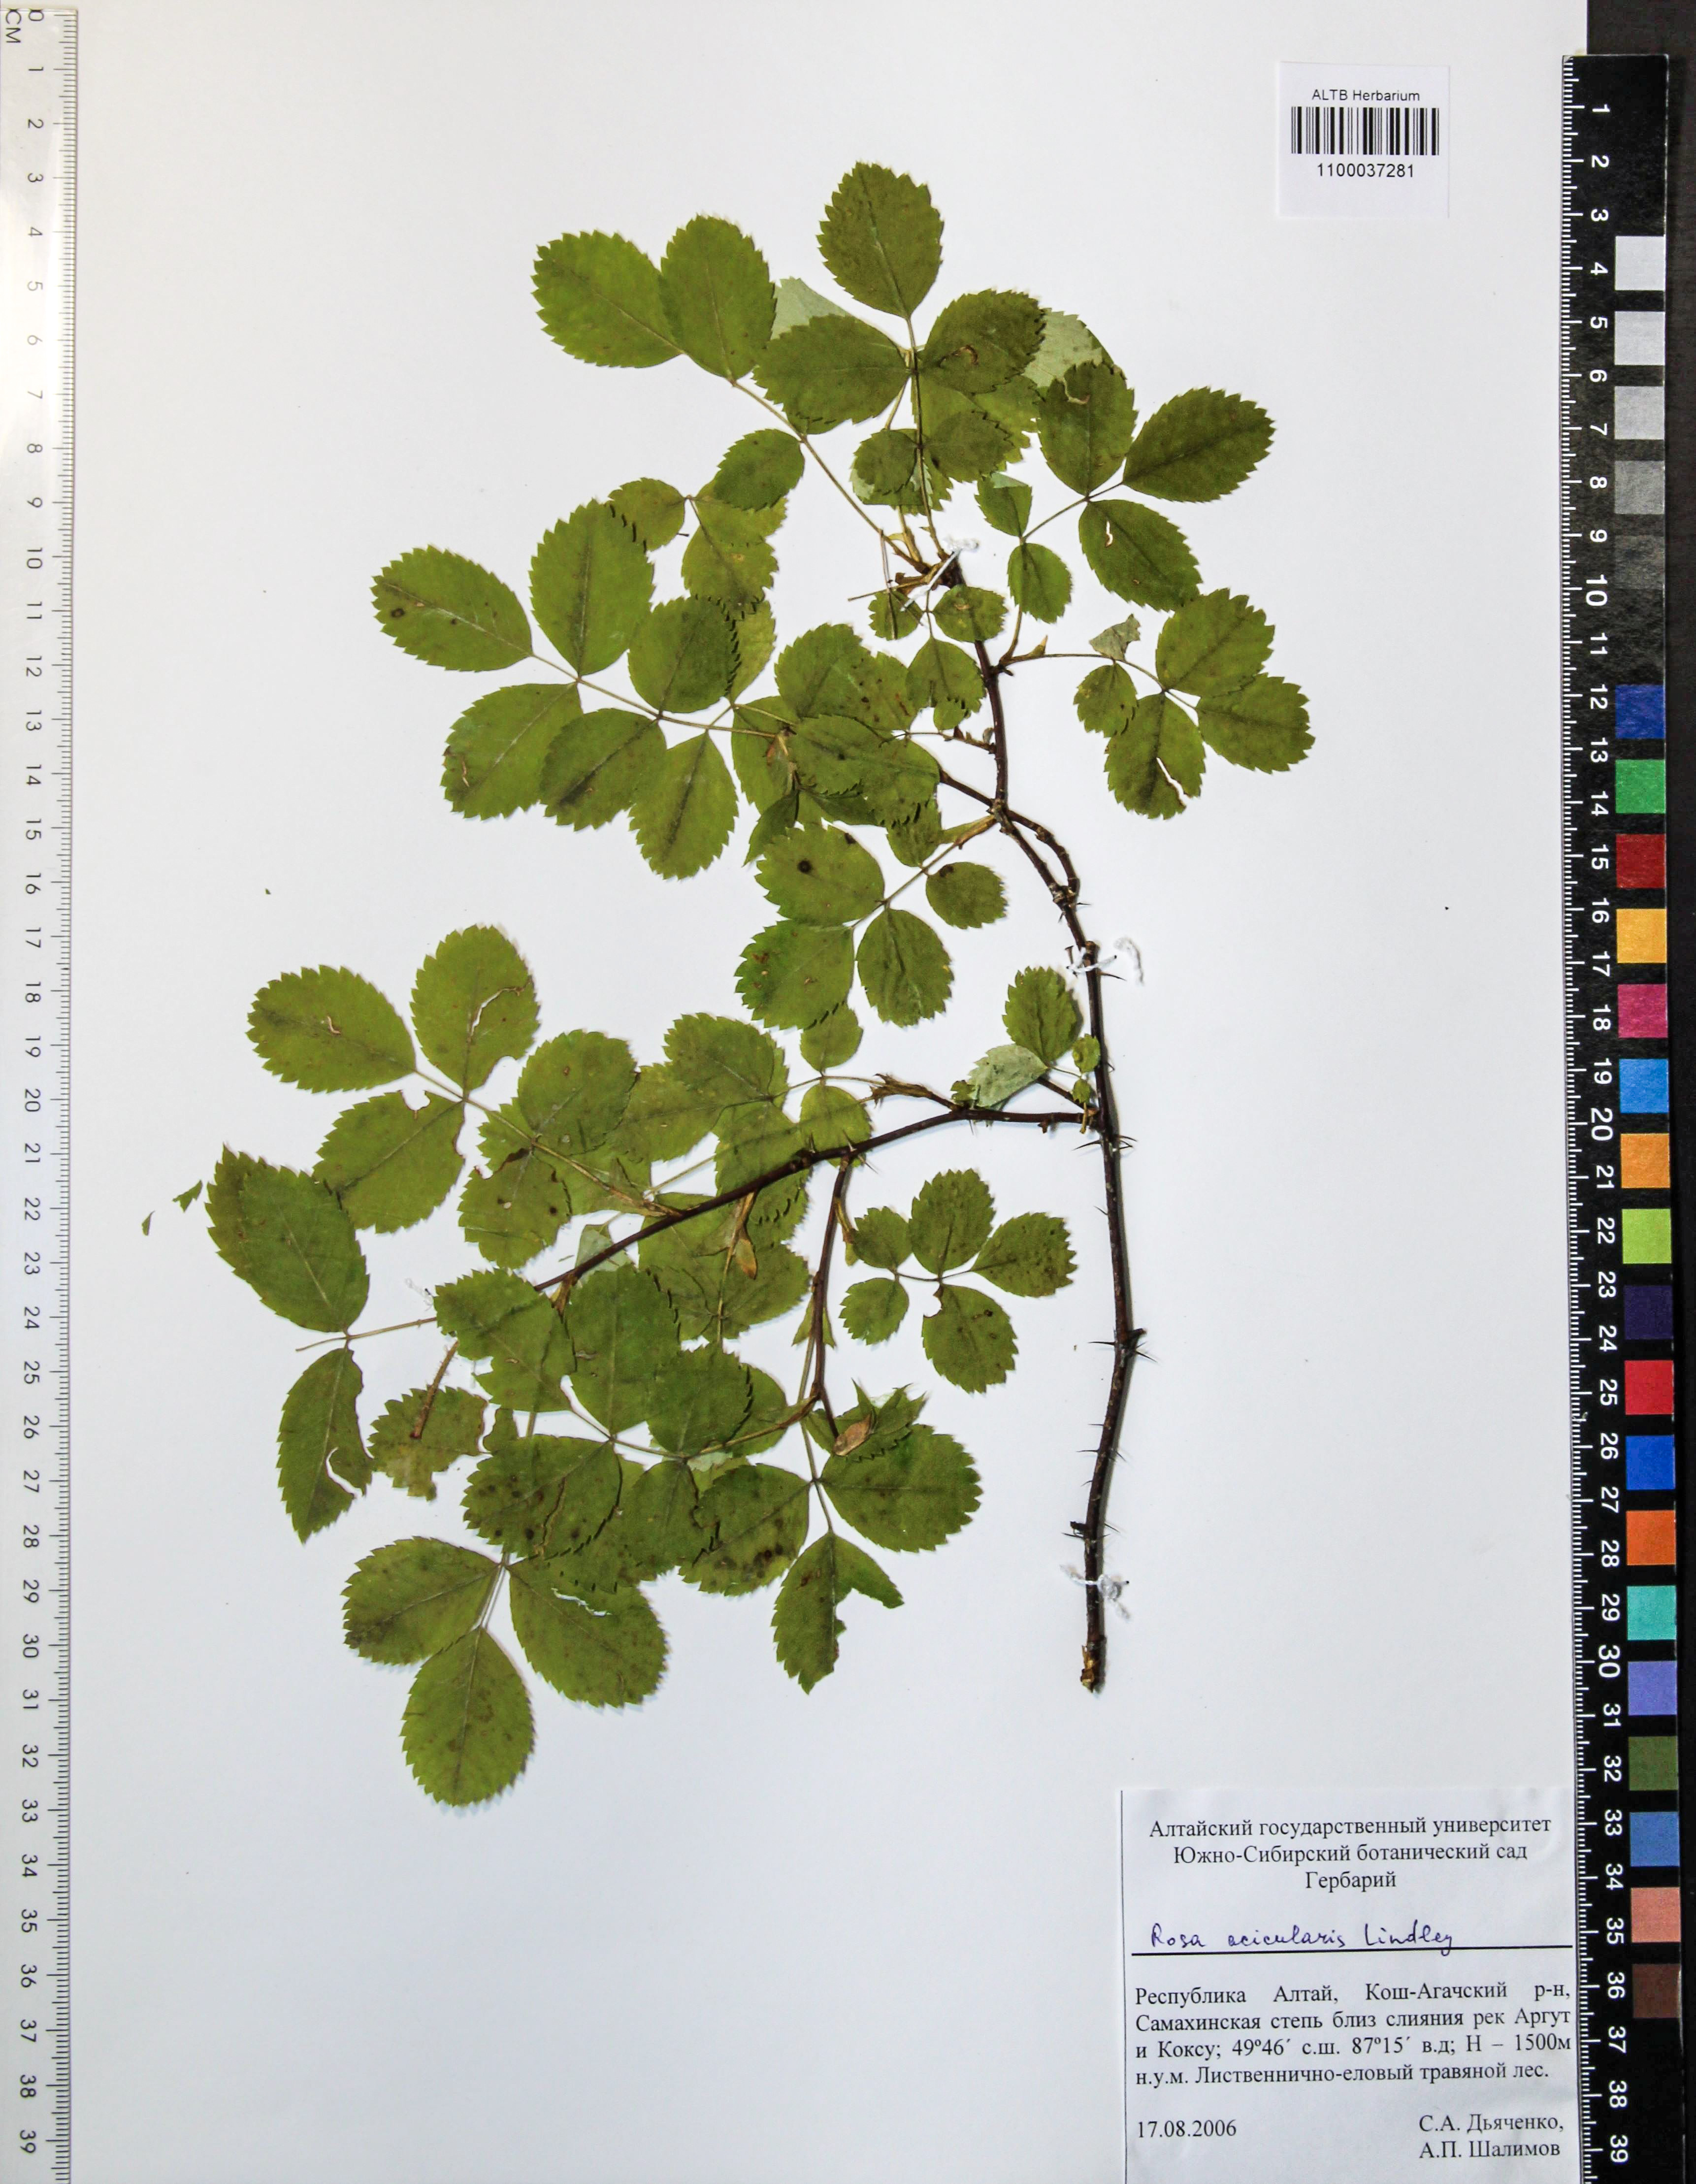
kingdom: Plantae
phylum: Tracheophyta
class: Magnoliopsida
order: Rosales
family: Rosaceae
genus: Rosa
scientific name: Rosa acicularis
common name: Prickly rose
